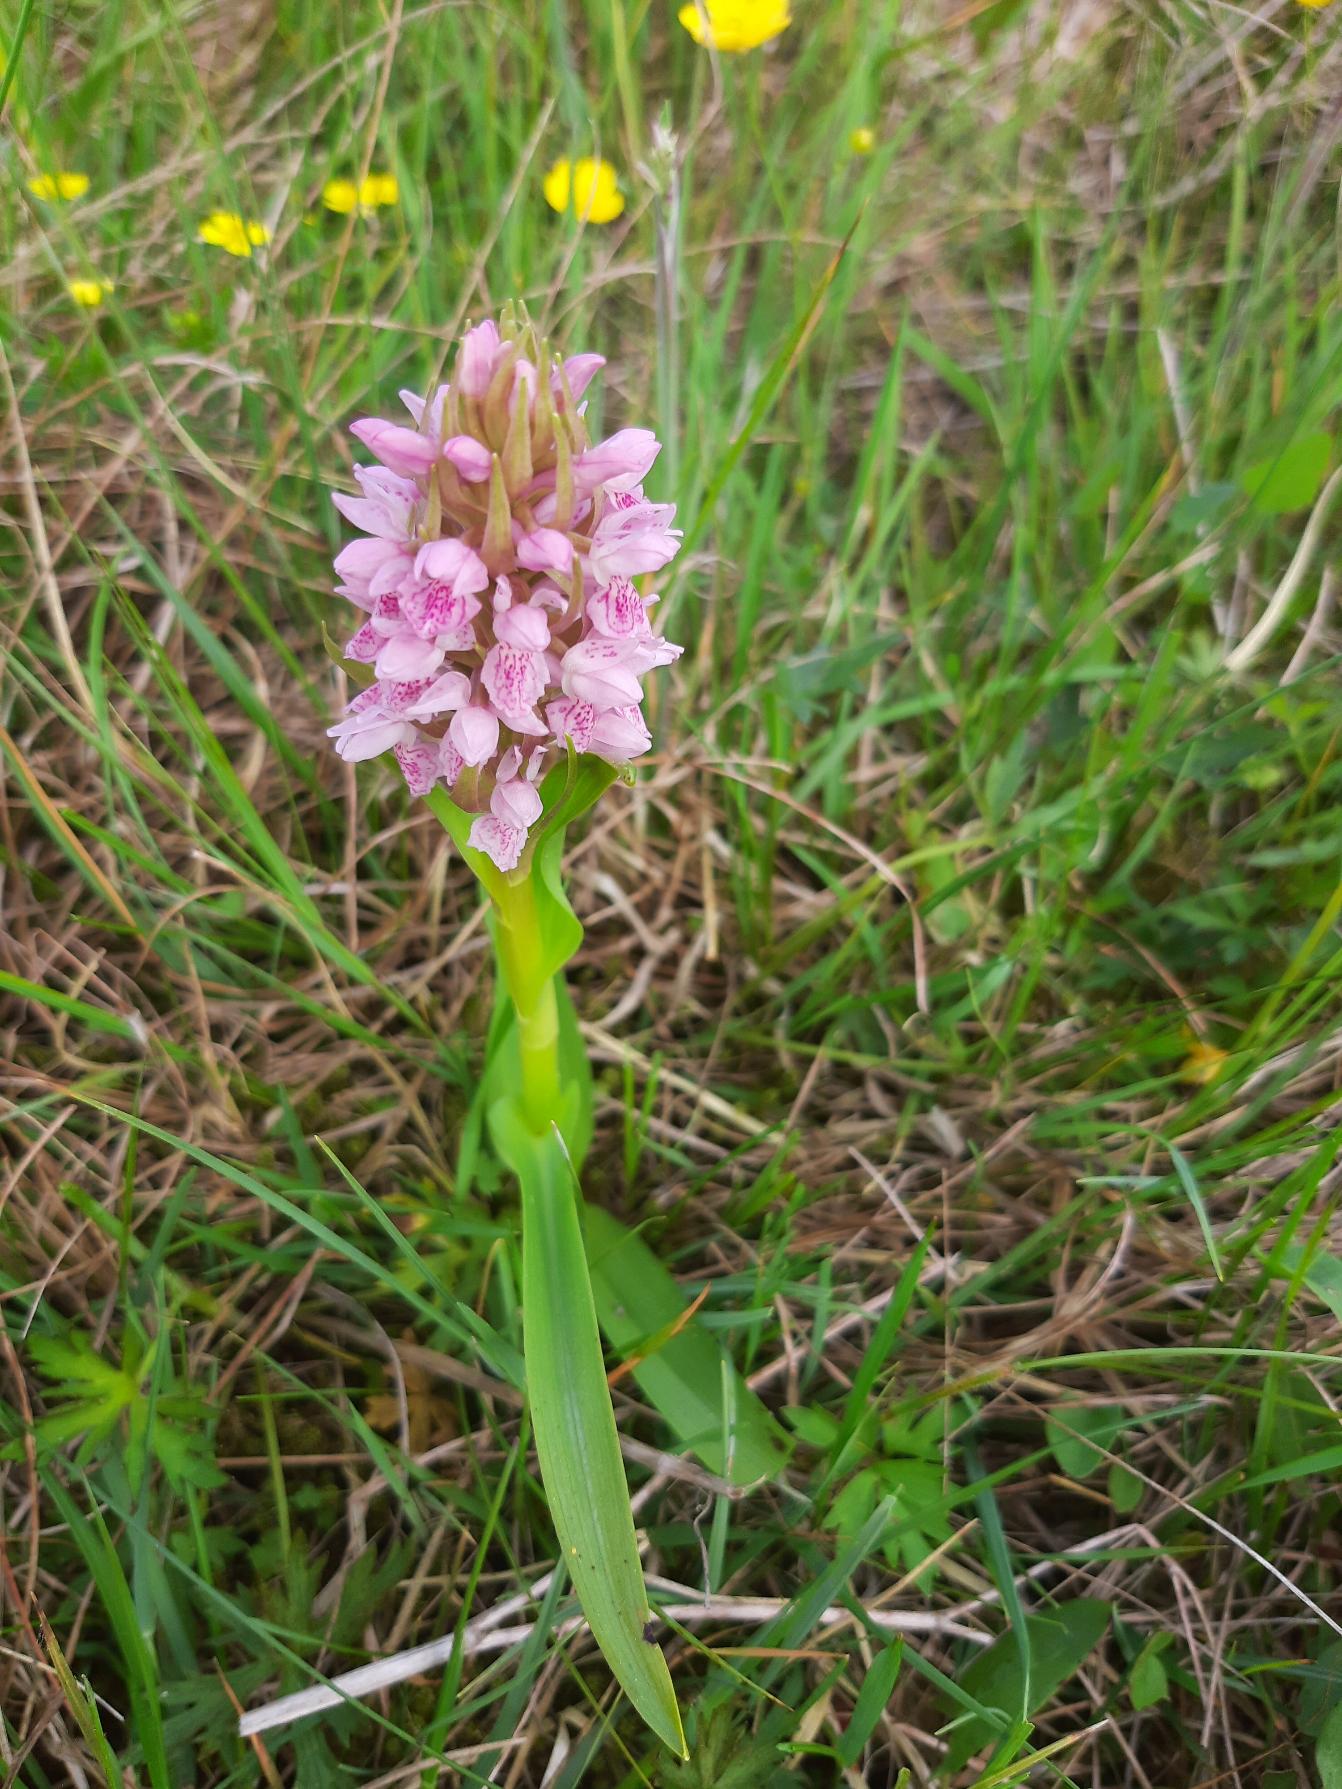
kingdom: Plantae
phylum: Tracheophyta
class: Liliopsida
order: Asparagales
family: Orchidaceae
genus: Dactylorhiza
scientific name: Dactylorhiza incarnata
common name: Kødfarvet gøgeurt
